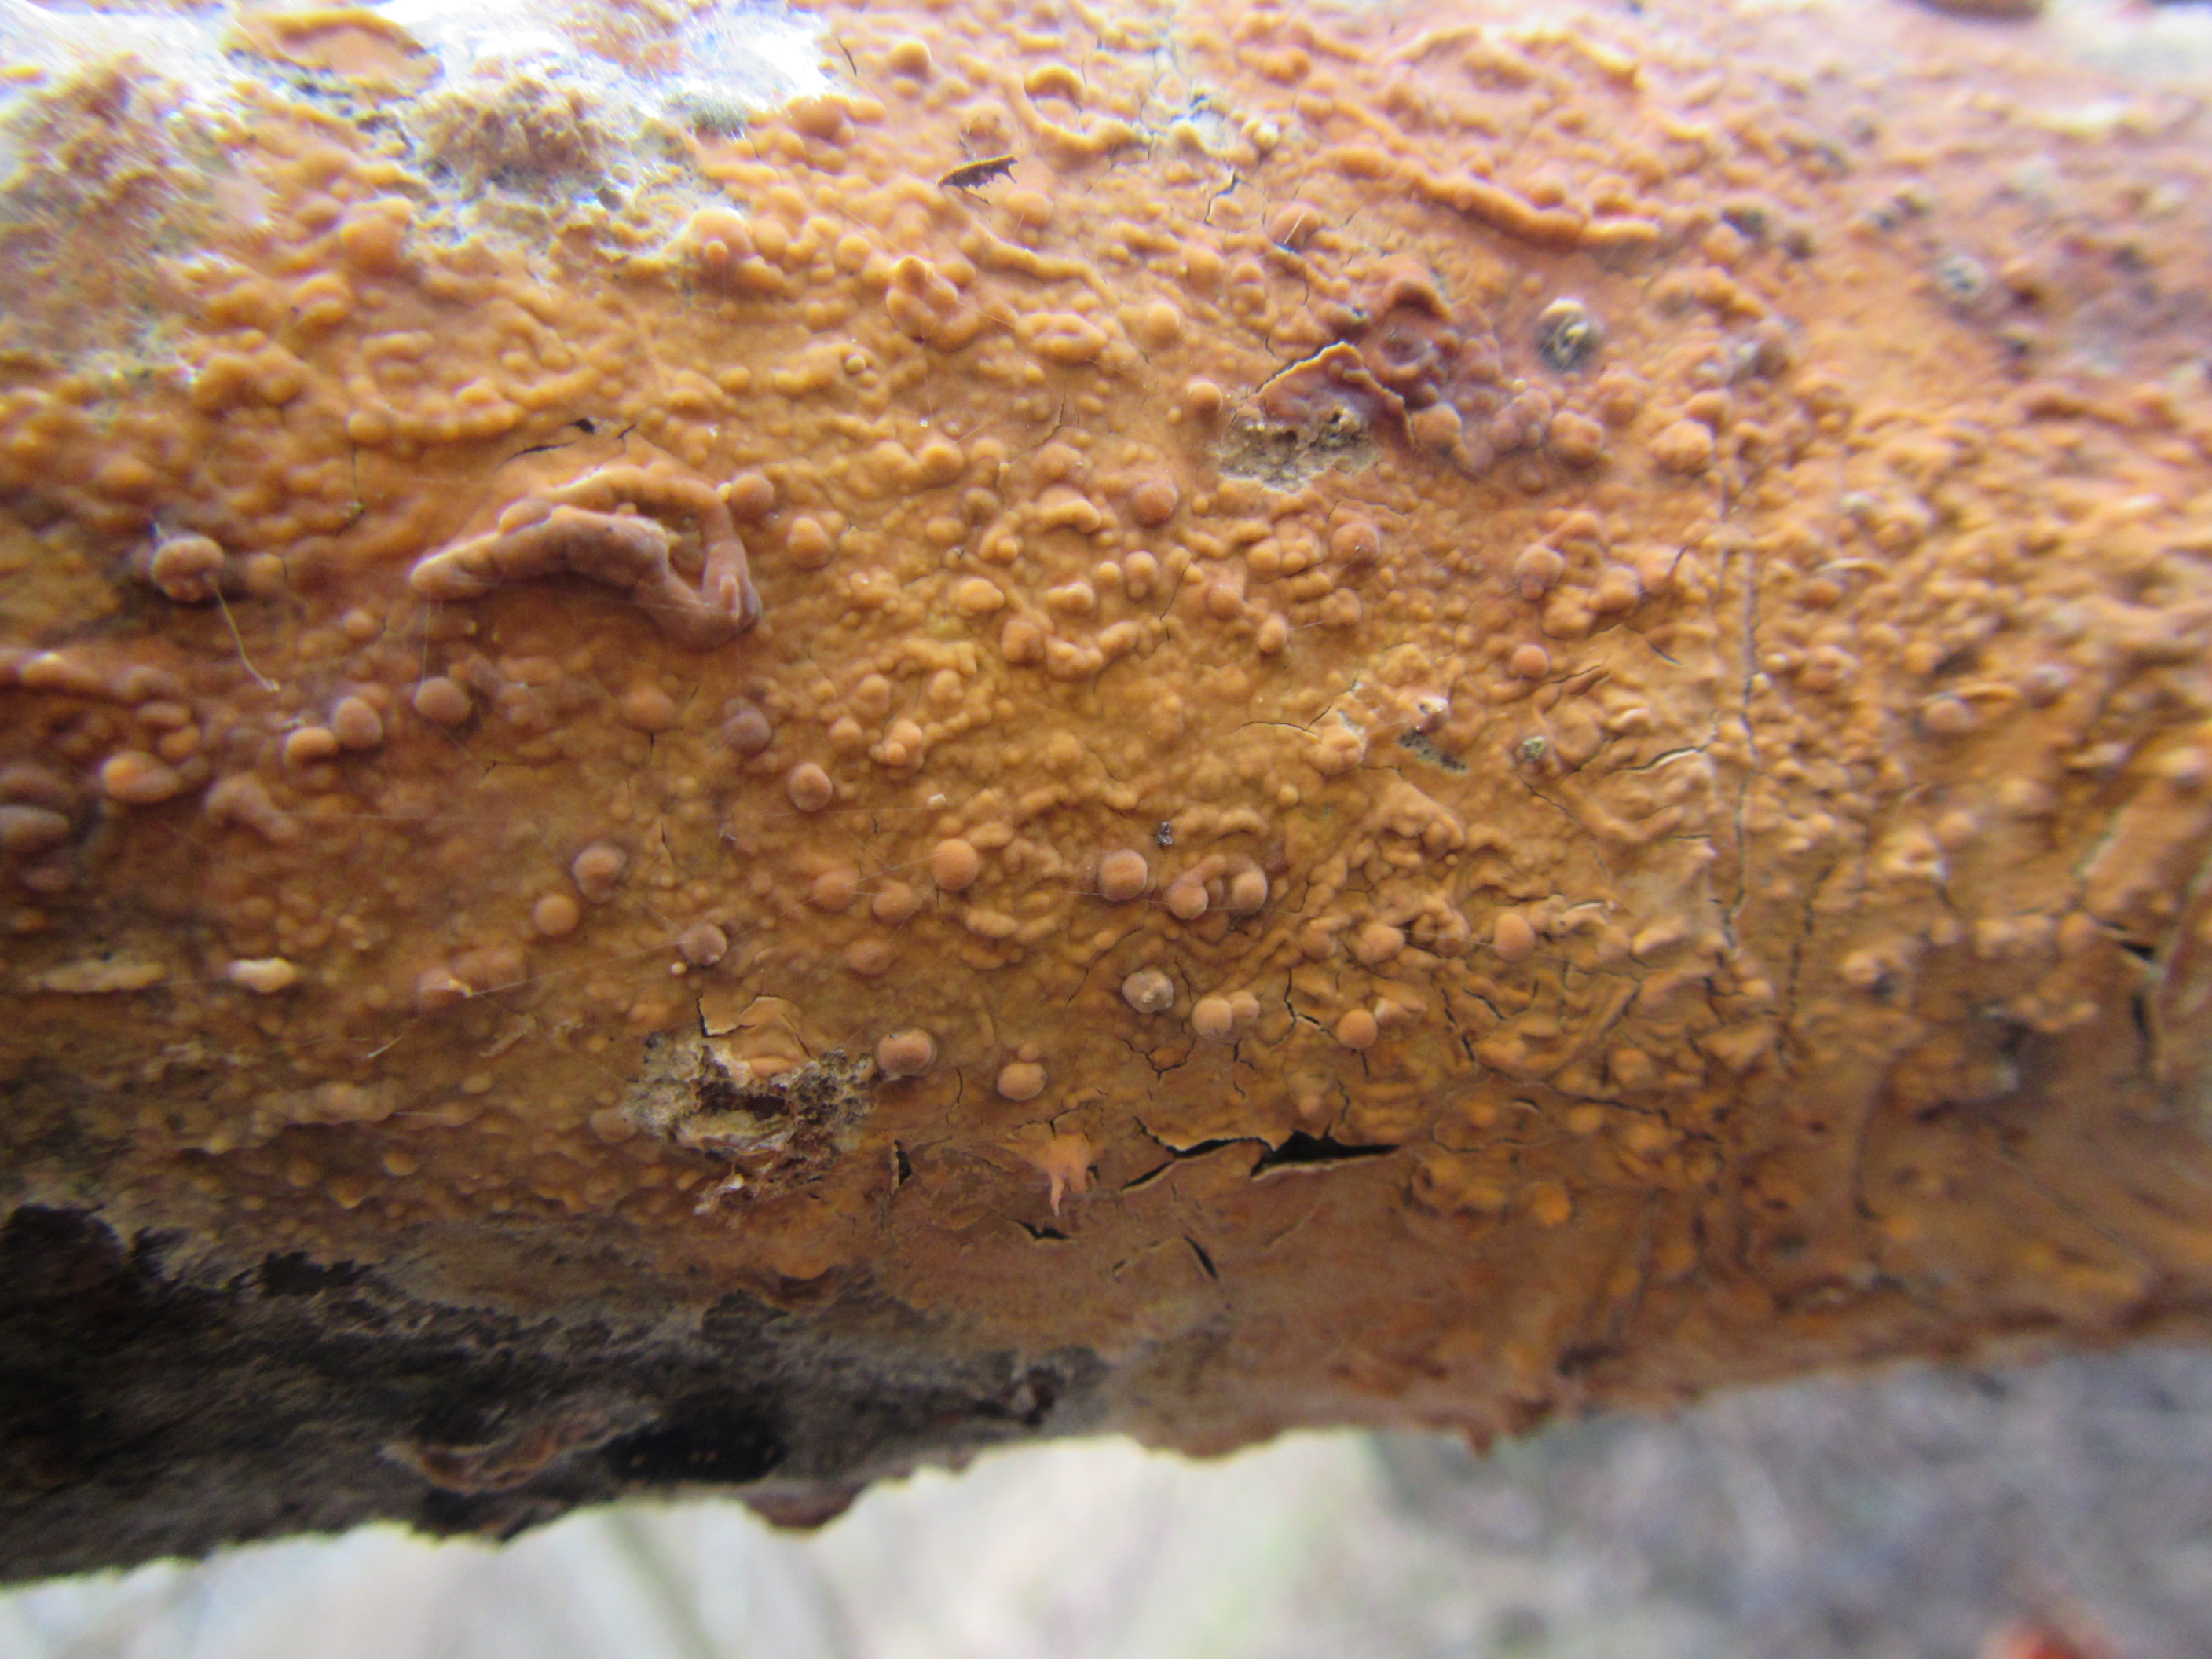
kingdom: Fungi
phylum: Basidiomycota
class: Agaricomycetes
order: Russulales
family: Peniophoraceae
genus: Peniophora
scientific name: Peniophora laurentii
